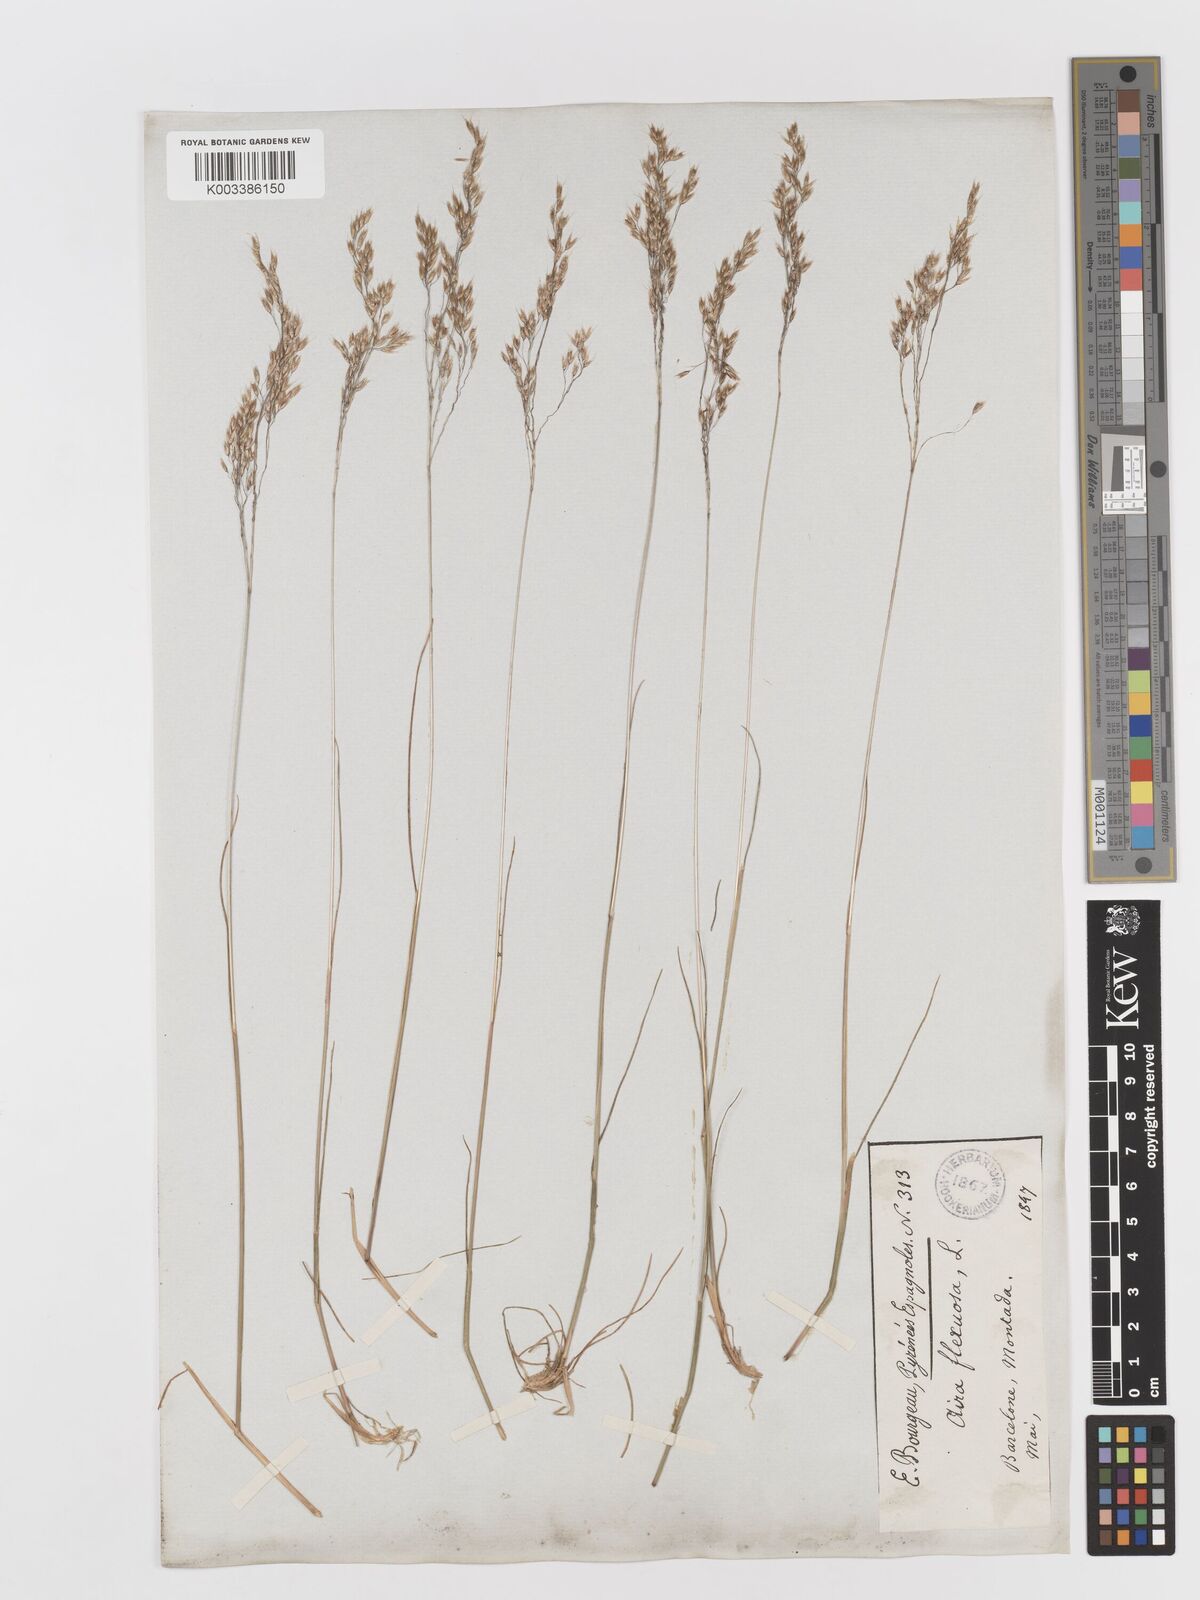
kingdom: Plantae
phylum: Tracheophyta
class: Liliopsida
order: Poales
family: Poaceae
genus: Avenella
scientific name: Avenella flexuosa
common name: Wavy hairgrass
